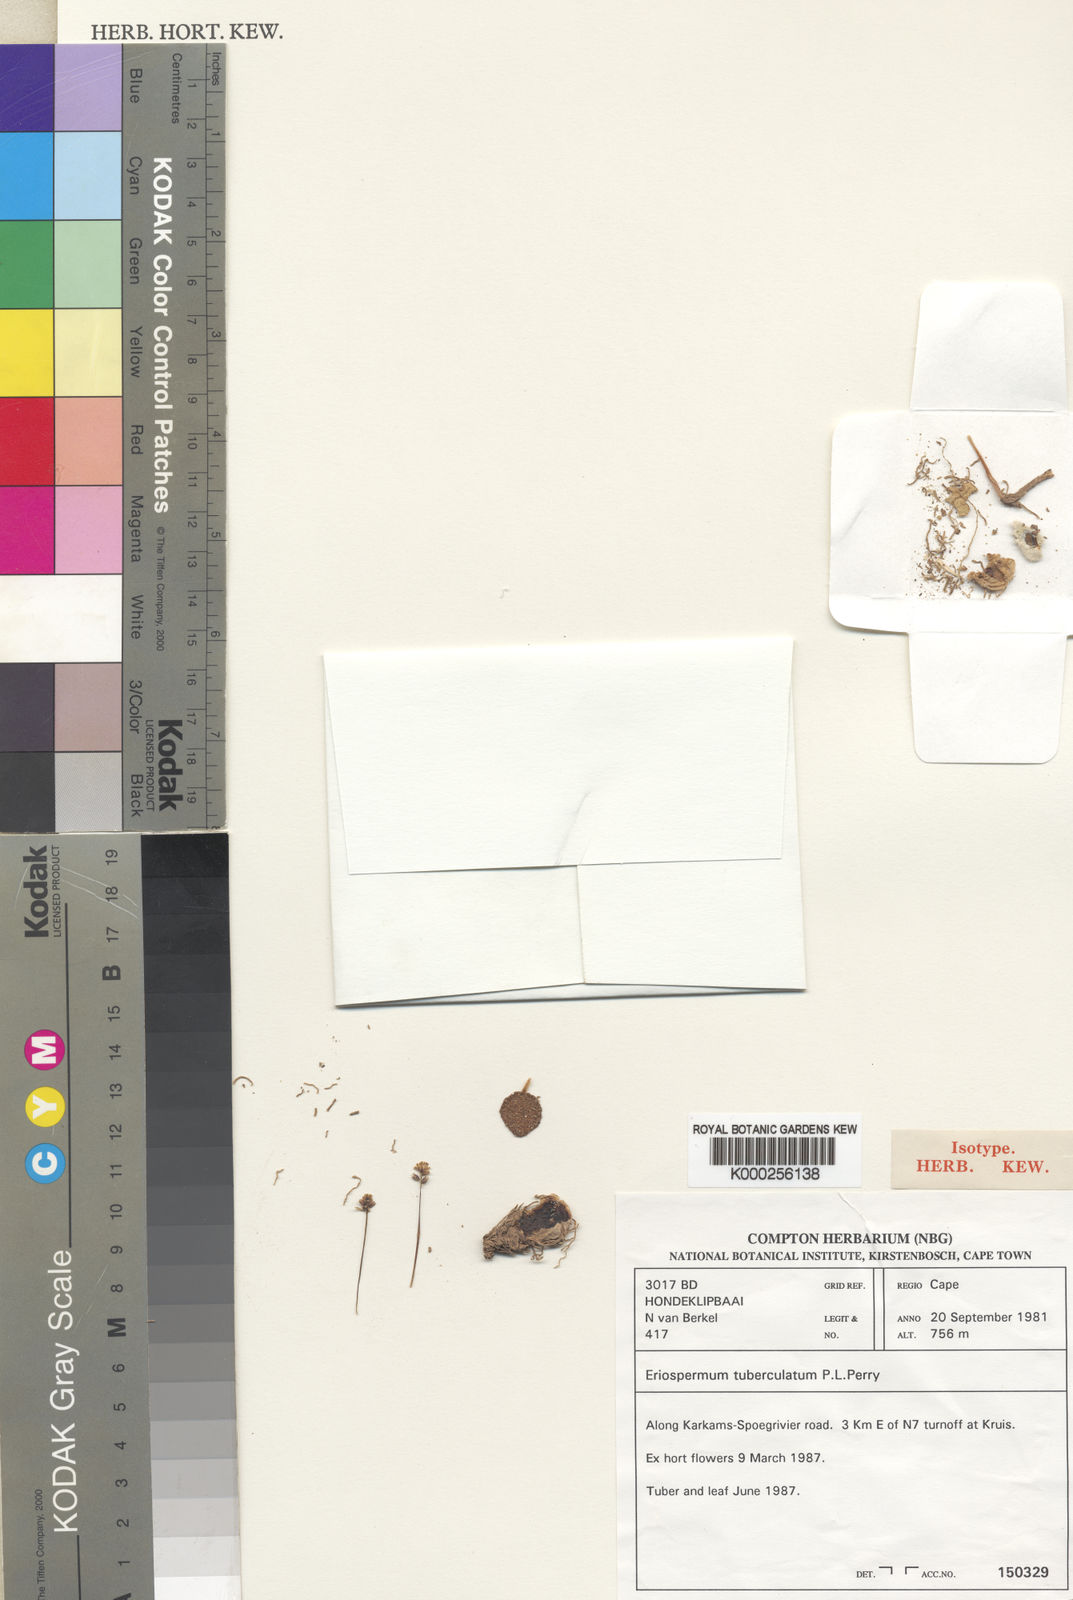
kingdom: Plantae
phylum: Tracheophyta
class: Liliopsida
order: Asparagales
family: Asparagaceae
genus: Eriospermum
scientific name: Eriospermum tuberculatum
